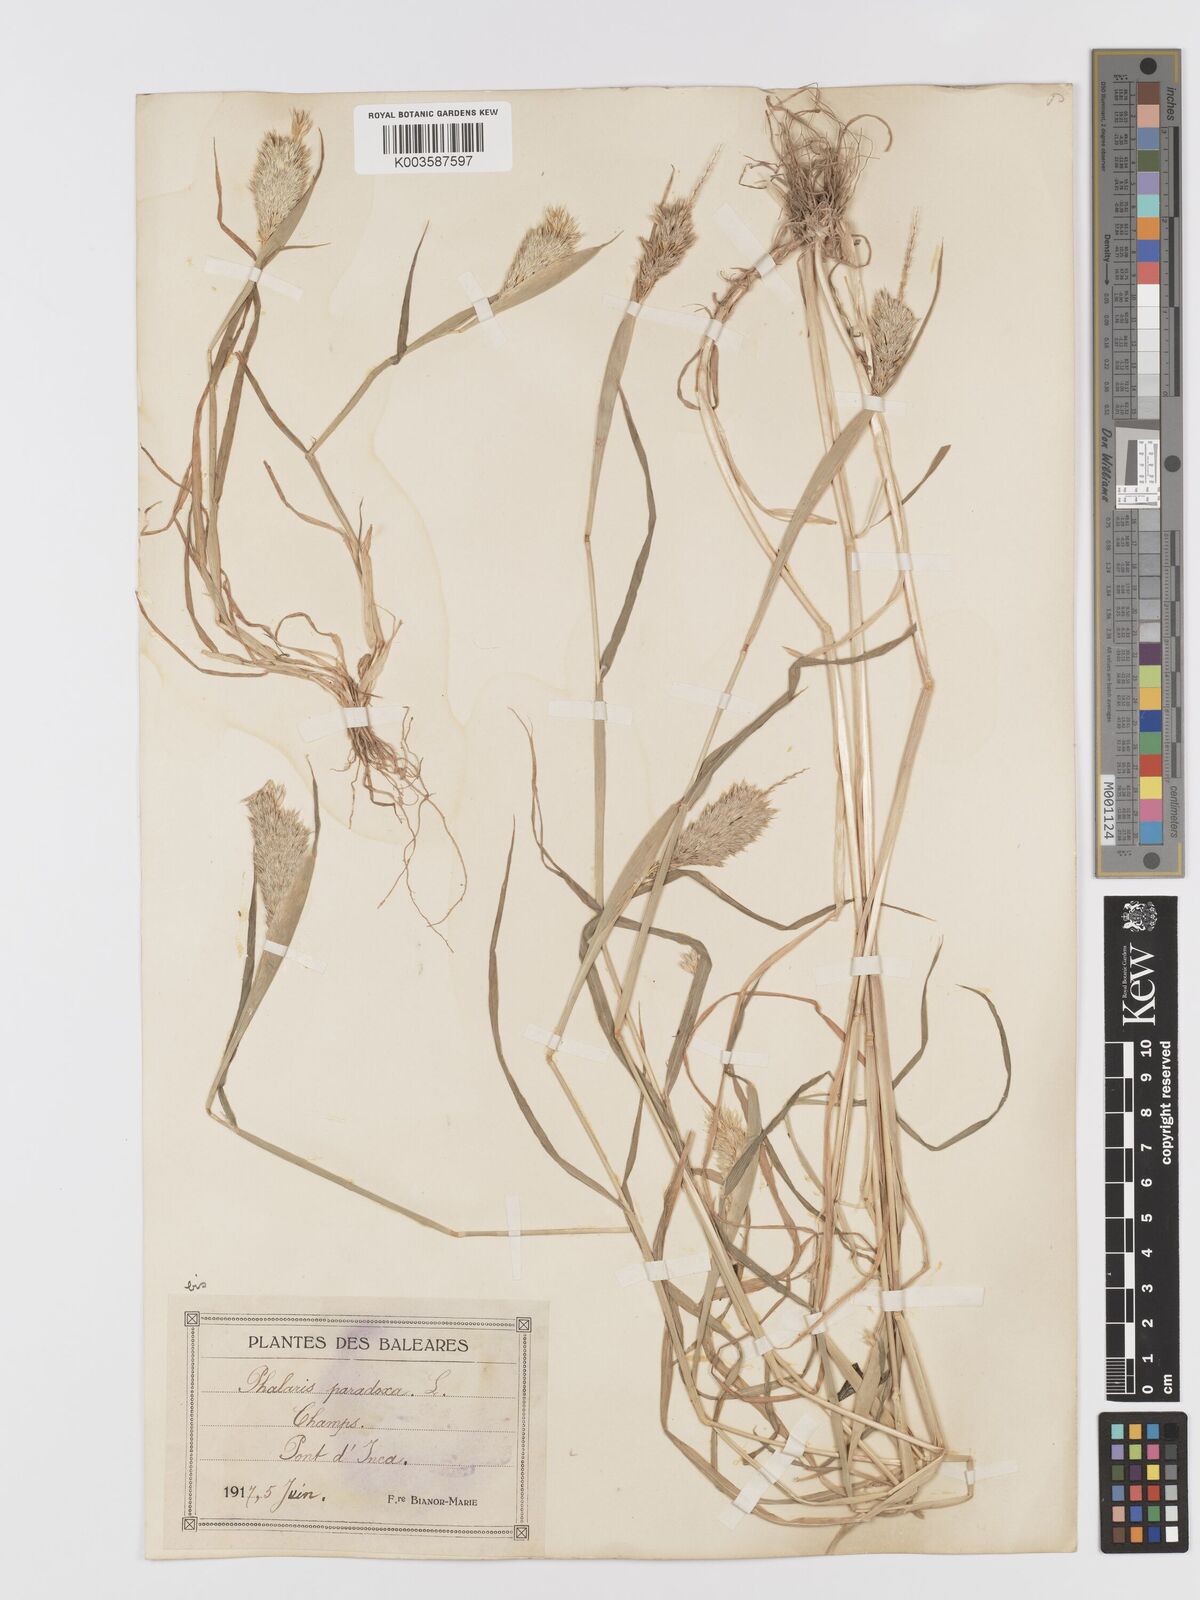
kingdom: Plantae
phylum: Tracheophyta
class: Liliopsida
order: Poales
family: Poaceae
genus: Phalaris
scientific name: Phalaris paradoxa
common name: Awned canary-grass
